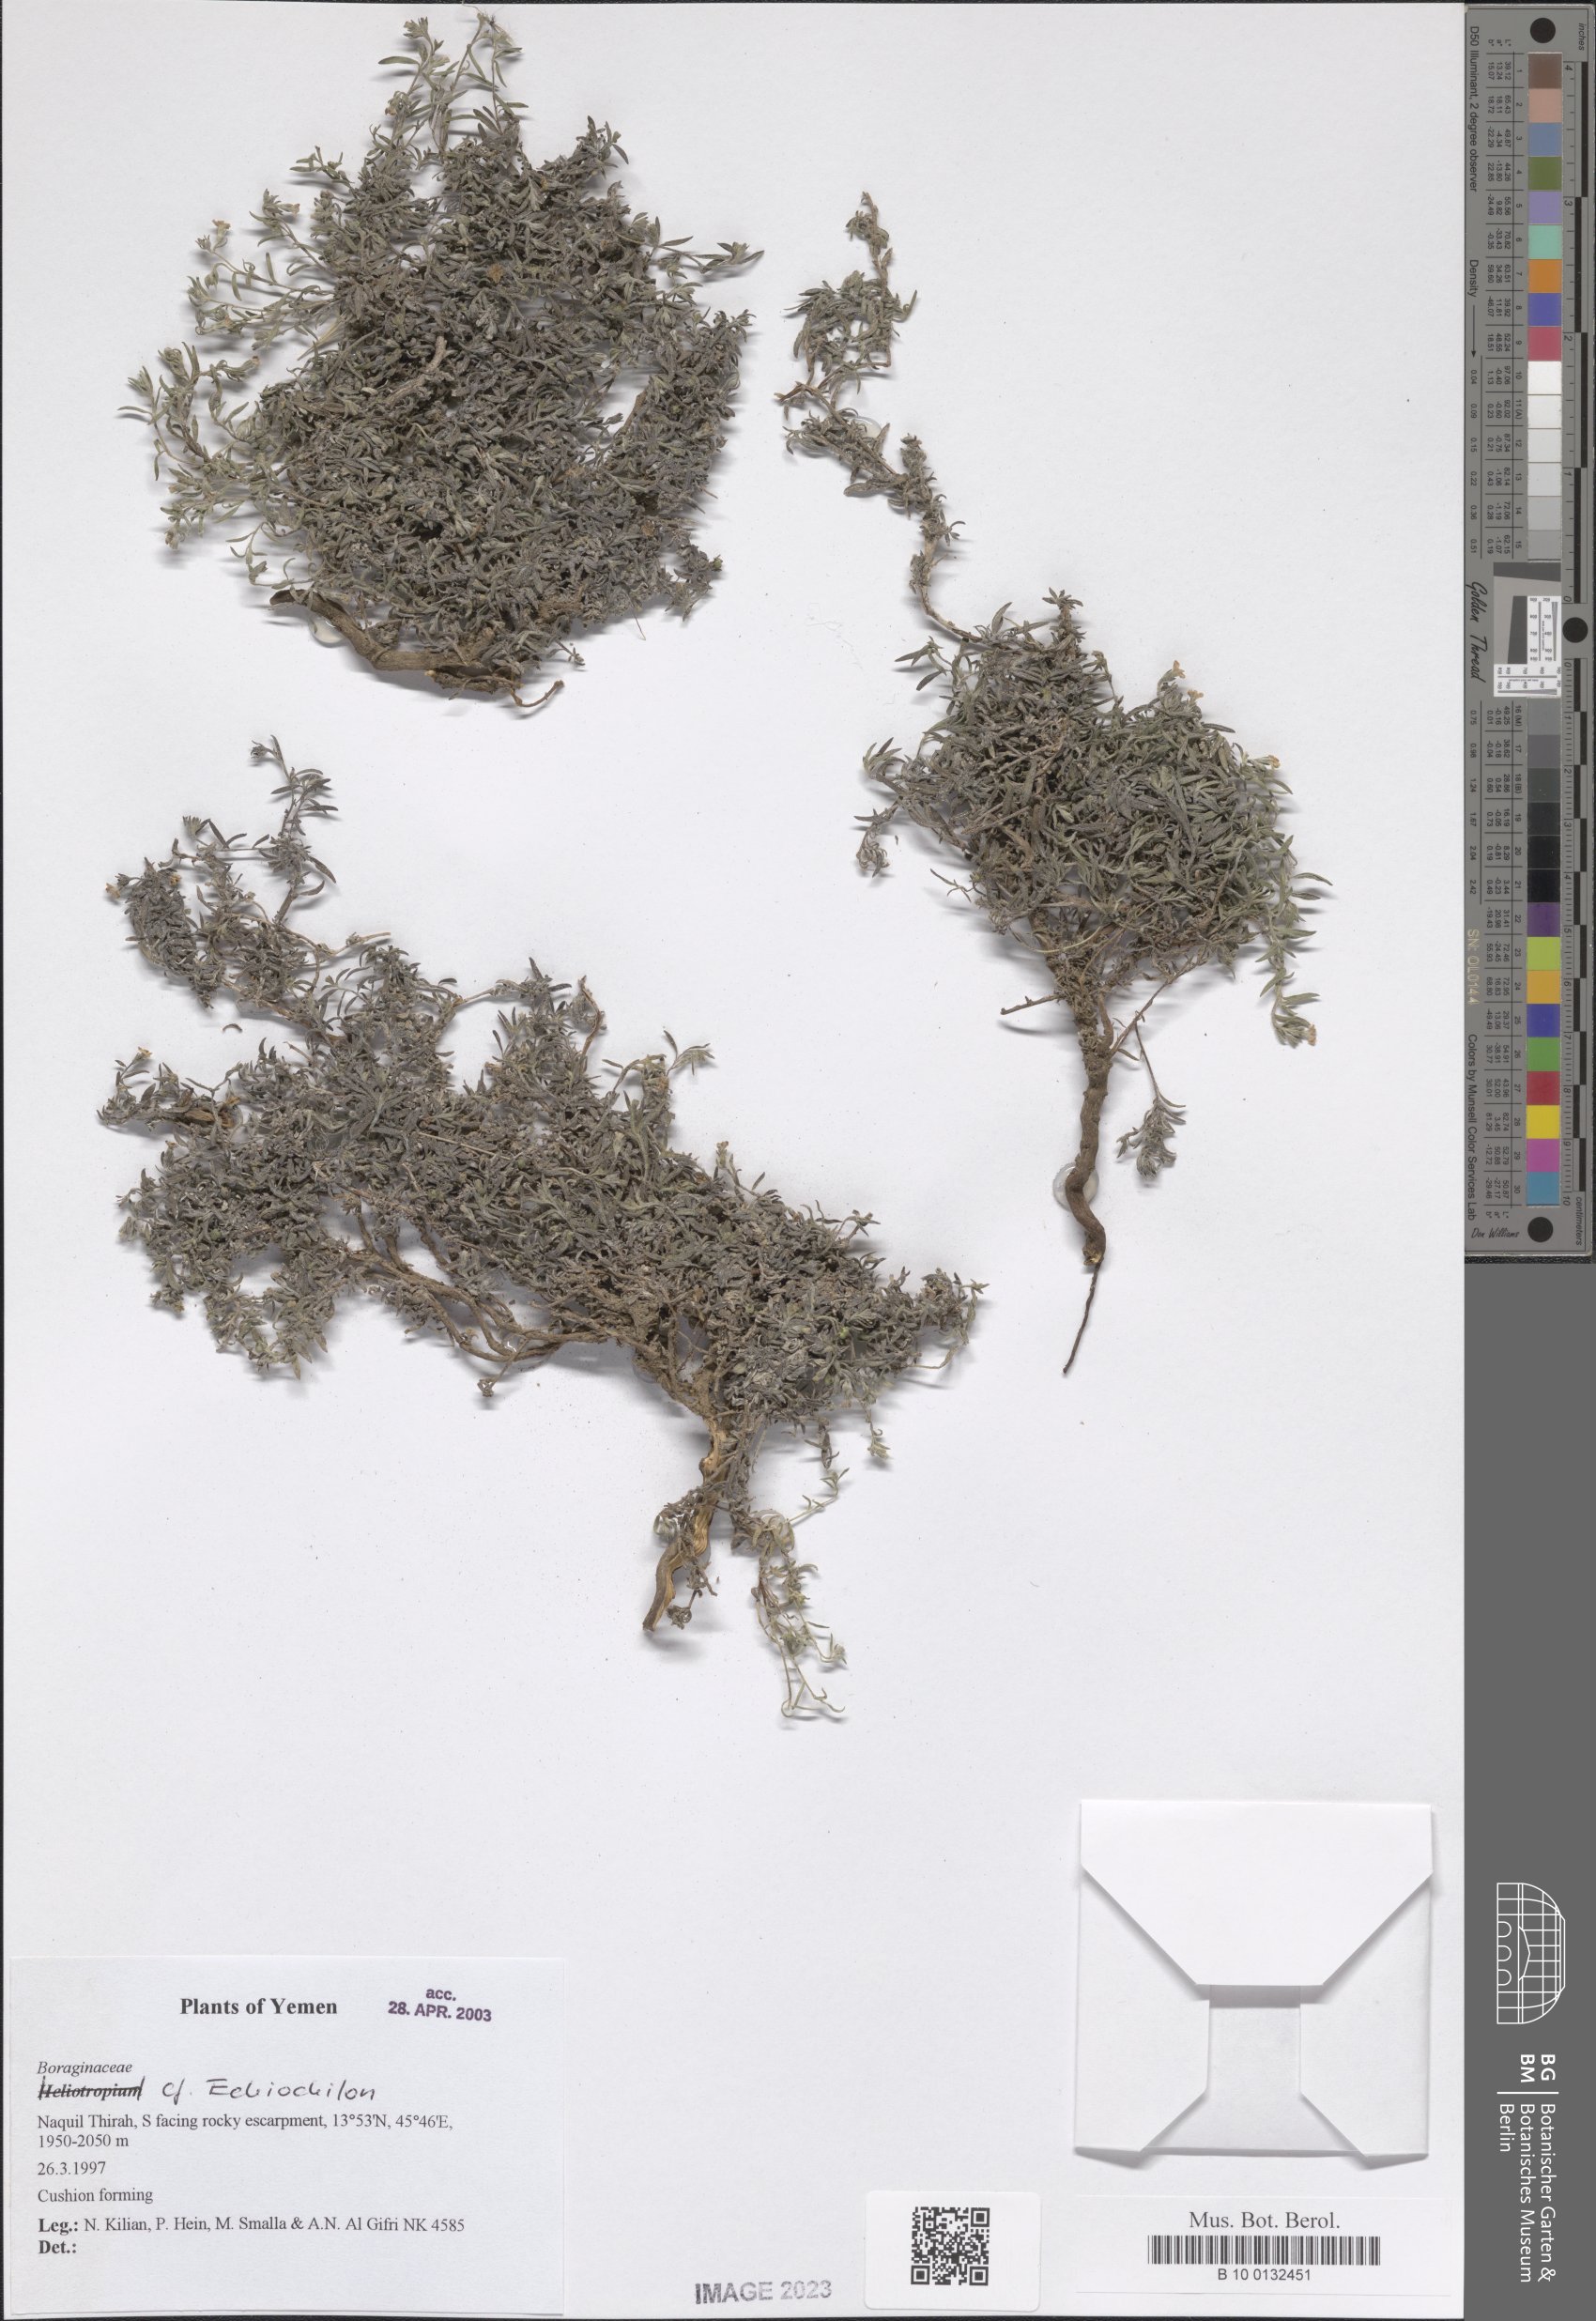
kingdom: Plantae
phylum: Tracheophyta
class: Magnoliopsida
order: Boraginales
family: Boraginaceae
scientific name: Boraginaceae
